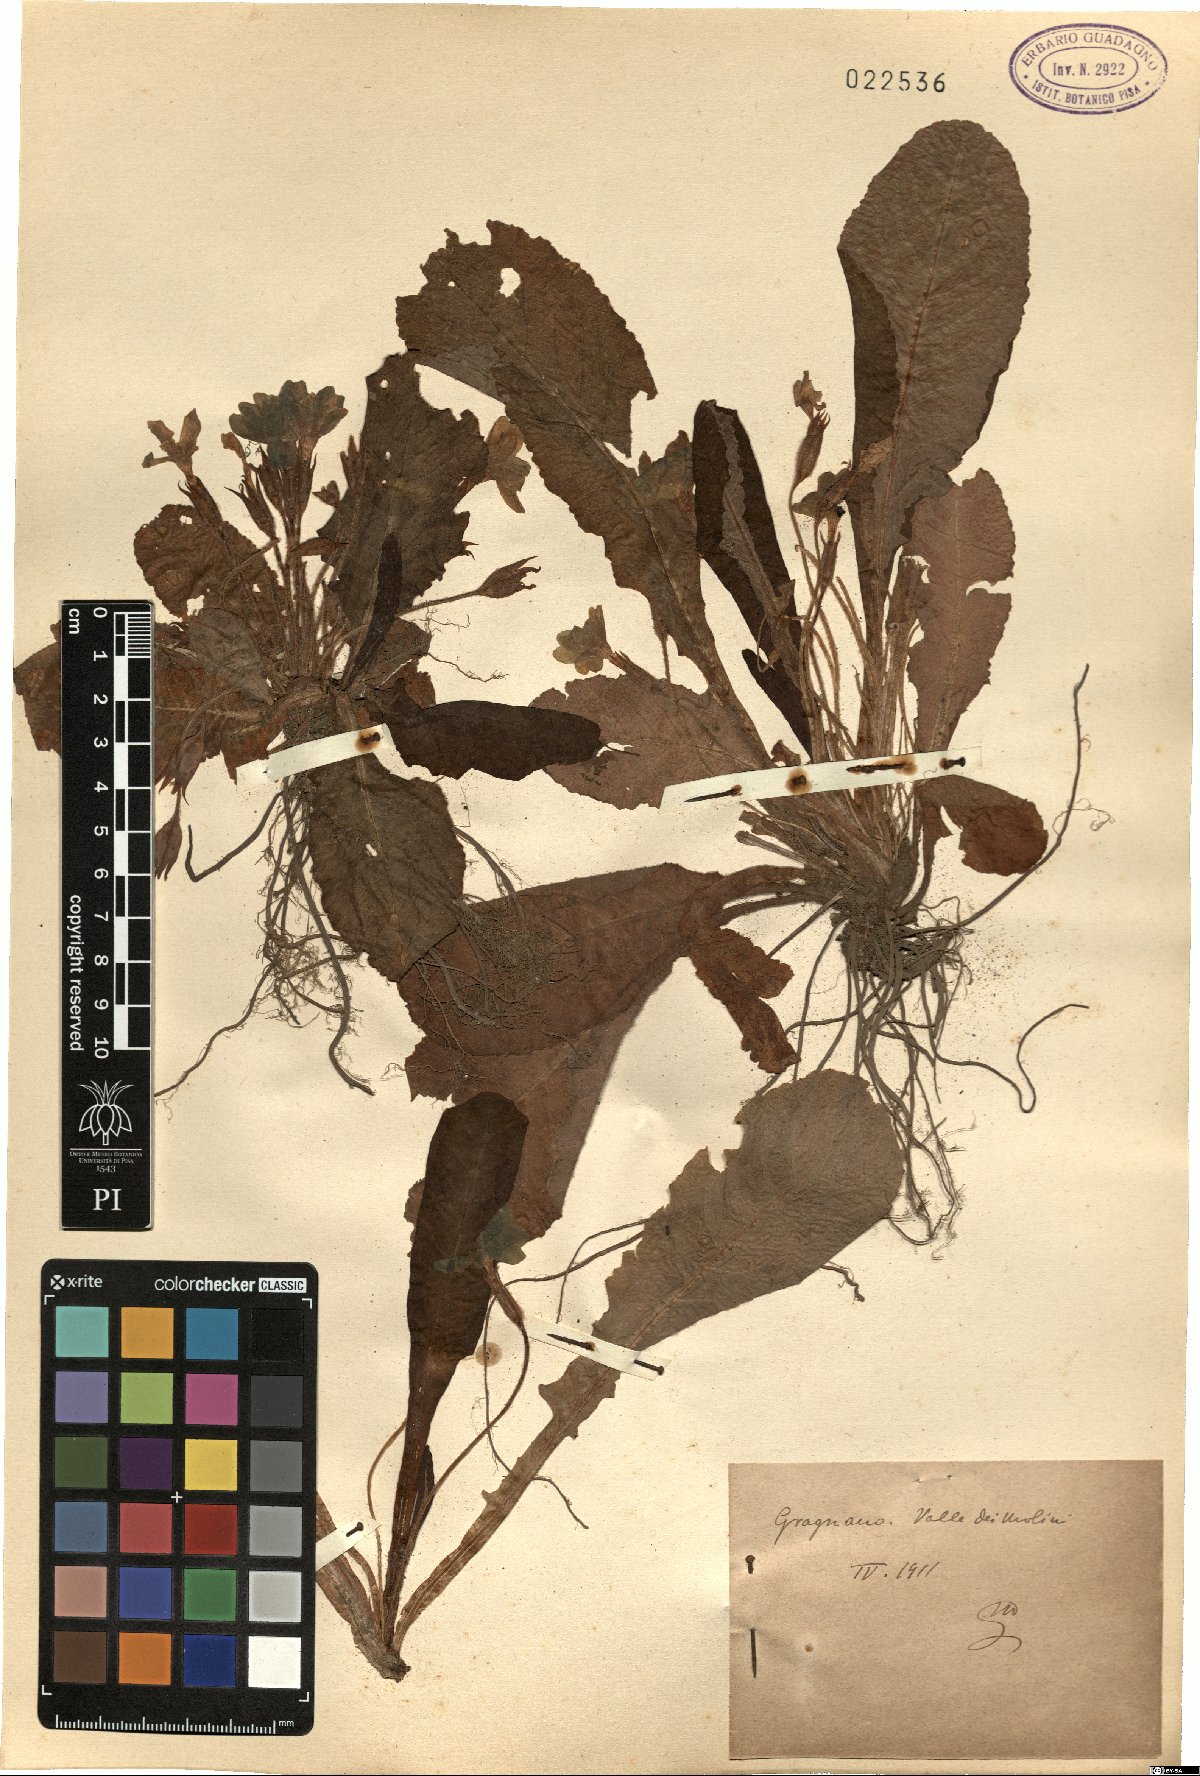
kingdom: Plantae
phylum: Tracheophyta
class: Magnoliopsida
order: Ericales
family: Primulaceae
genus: Primula
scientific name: Primula
